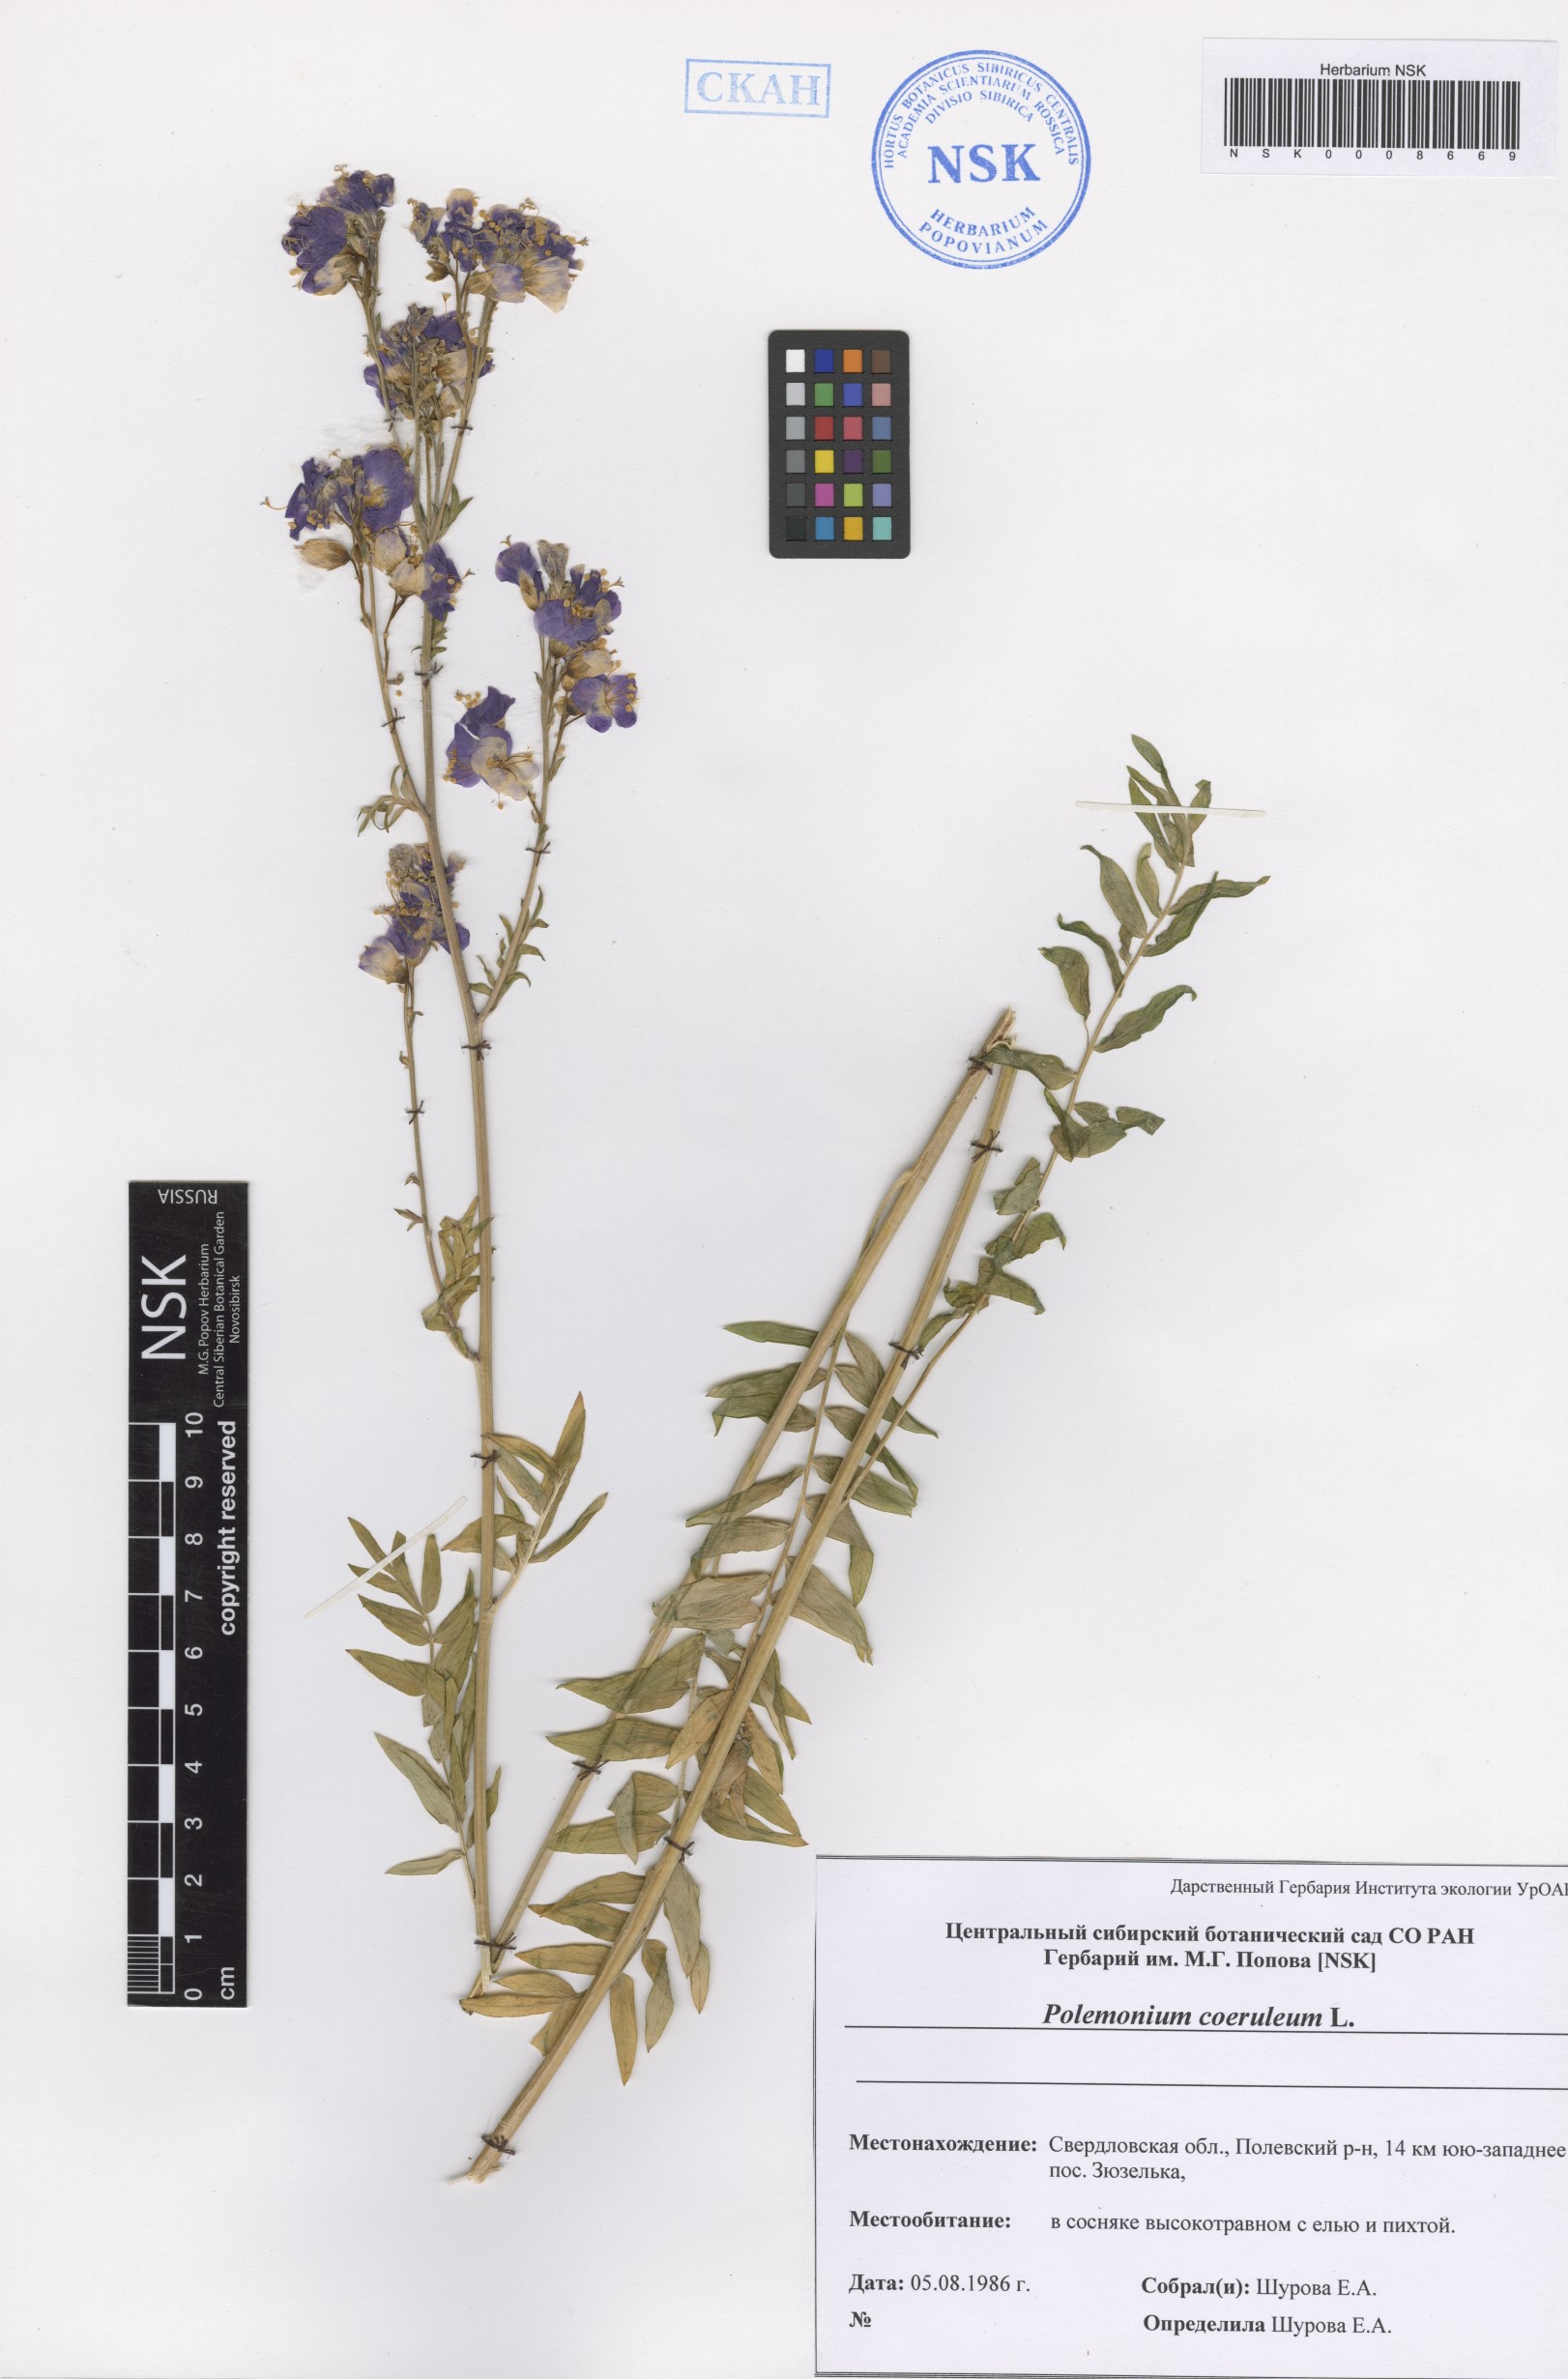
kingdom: Plantae
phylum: Tracheophyta
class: Magnoliopsida
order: Ericales
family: Polemoniaceae
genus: Polemonium
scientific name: Polemonium caeruleum
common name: Jacob's-ladder
